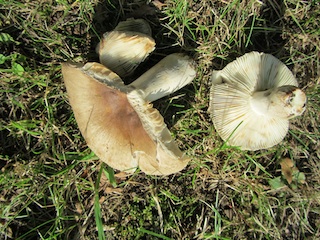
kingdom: Fungi
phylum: Basidiomycota
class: Agaricomycetes
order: Russulales
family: Russulaceae
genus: Russula
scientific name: Russula amoenolens
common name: skarp kam-skørhat
